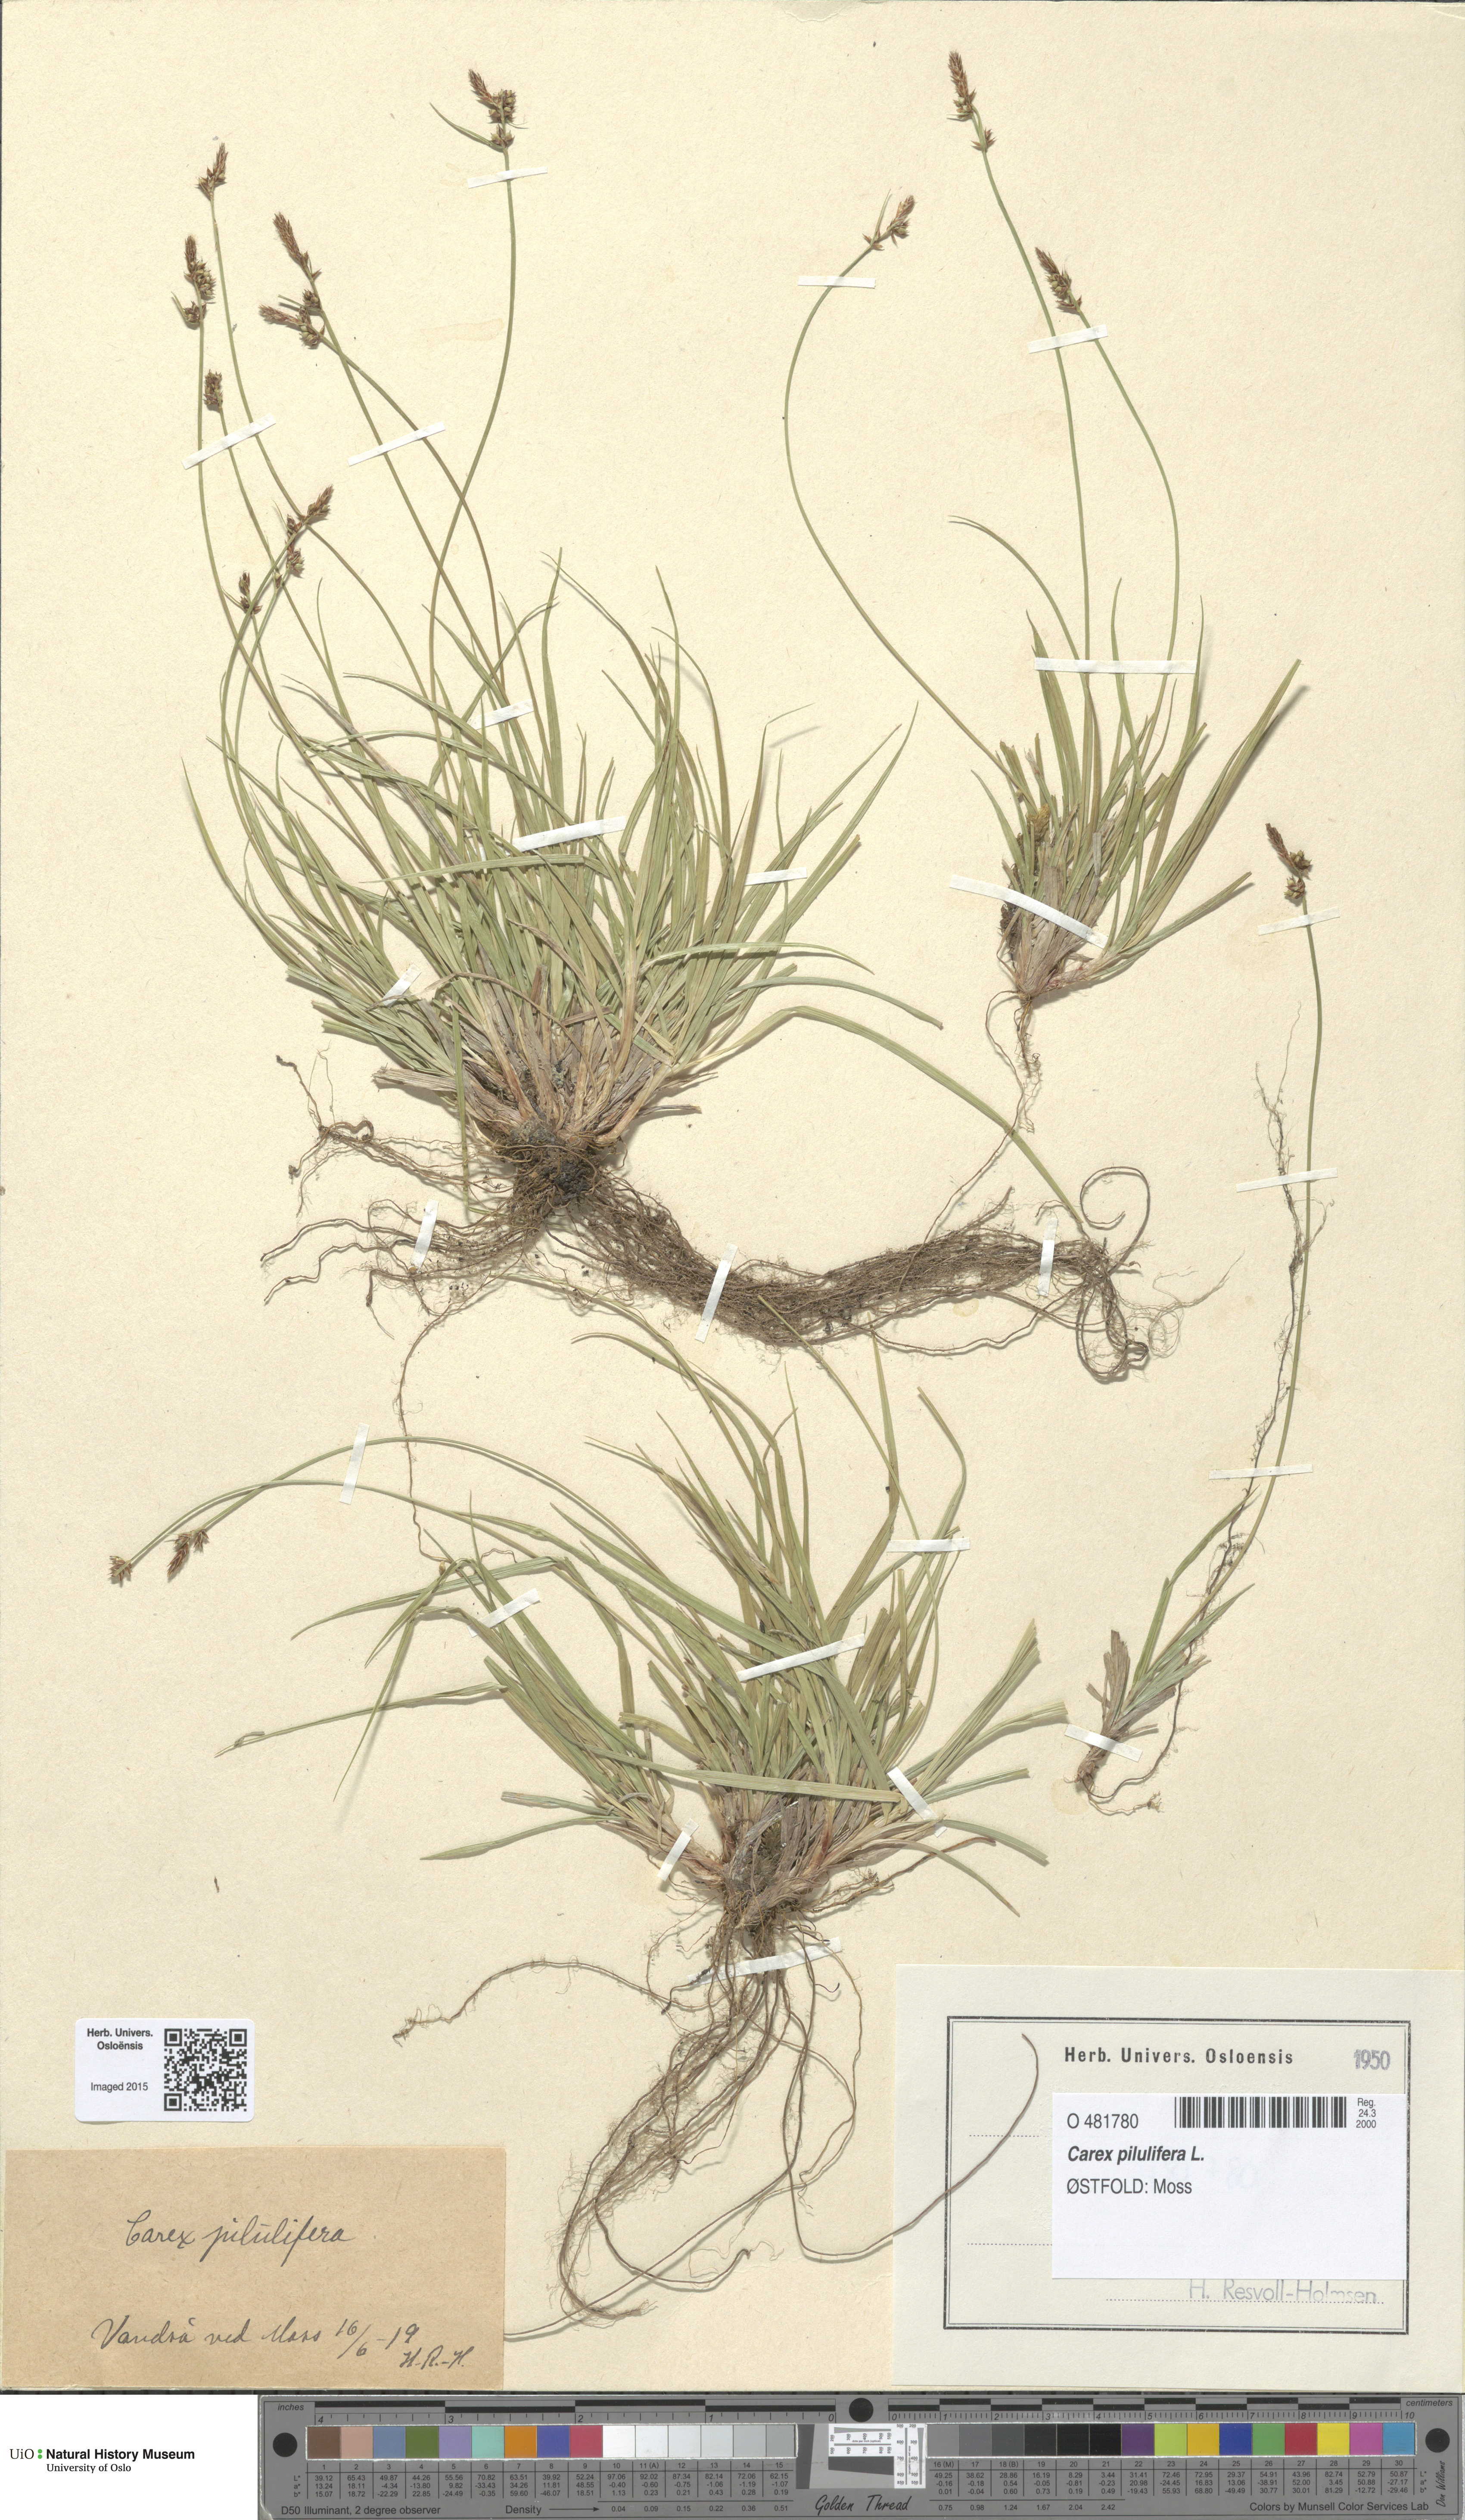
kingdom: Plantae
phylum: Tracheophyta
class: Liliopsida
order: Poales
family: Cyperaceae
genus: Carex
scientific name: Carex pilulifera
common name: Pill sedge
